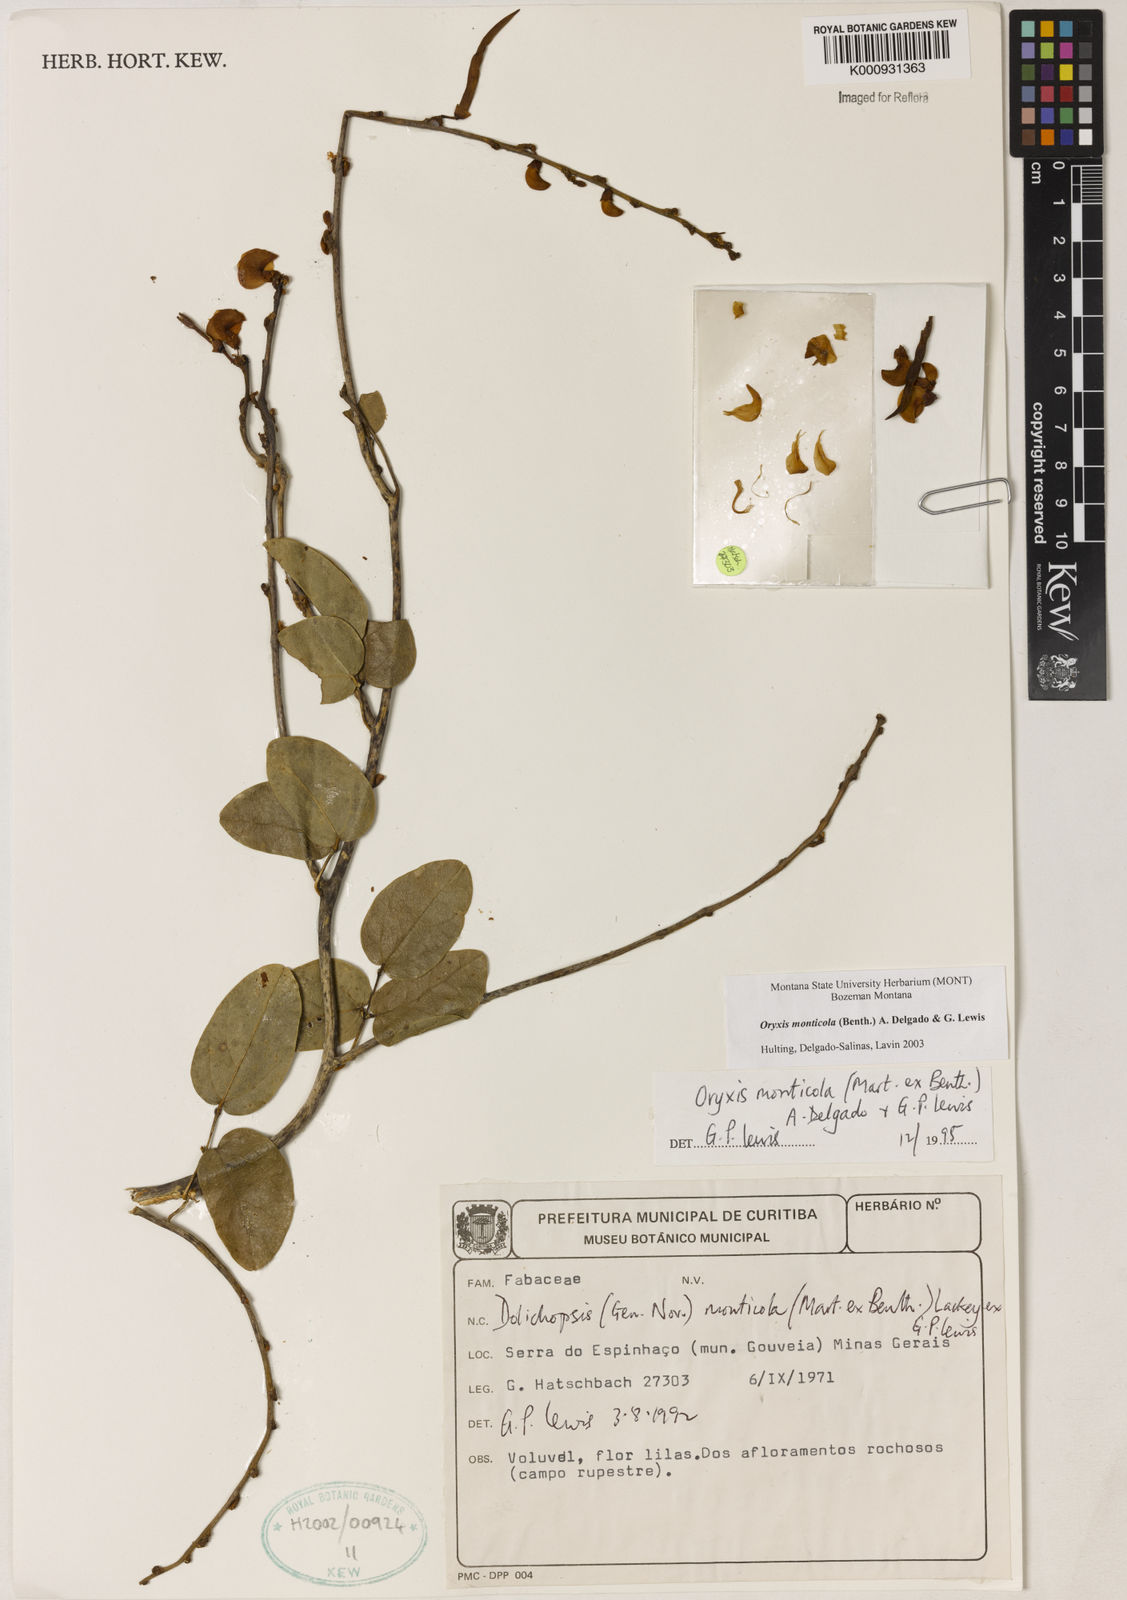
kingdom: Plantae
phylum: Tracheophyta
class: Magnoliopsida
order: Fabales
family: Fabaceae
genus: Dolichopsis
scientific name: Dolichopsis monticola
